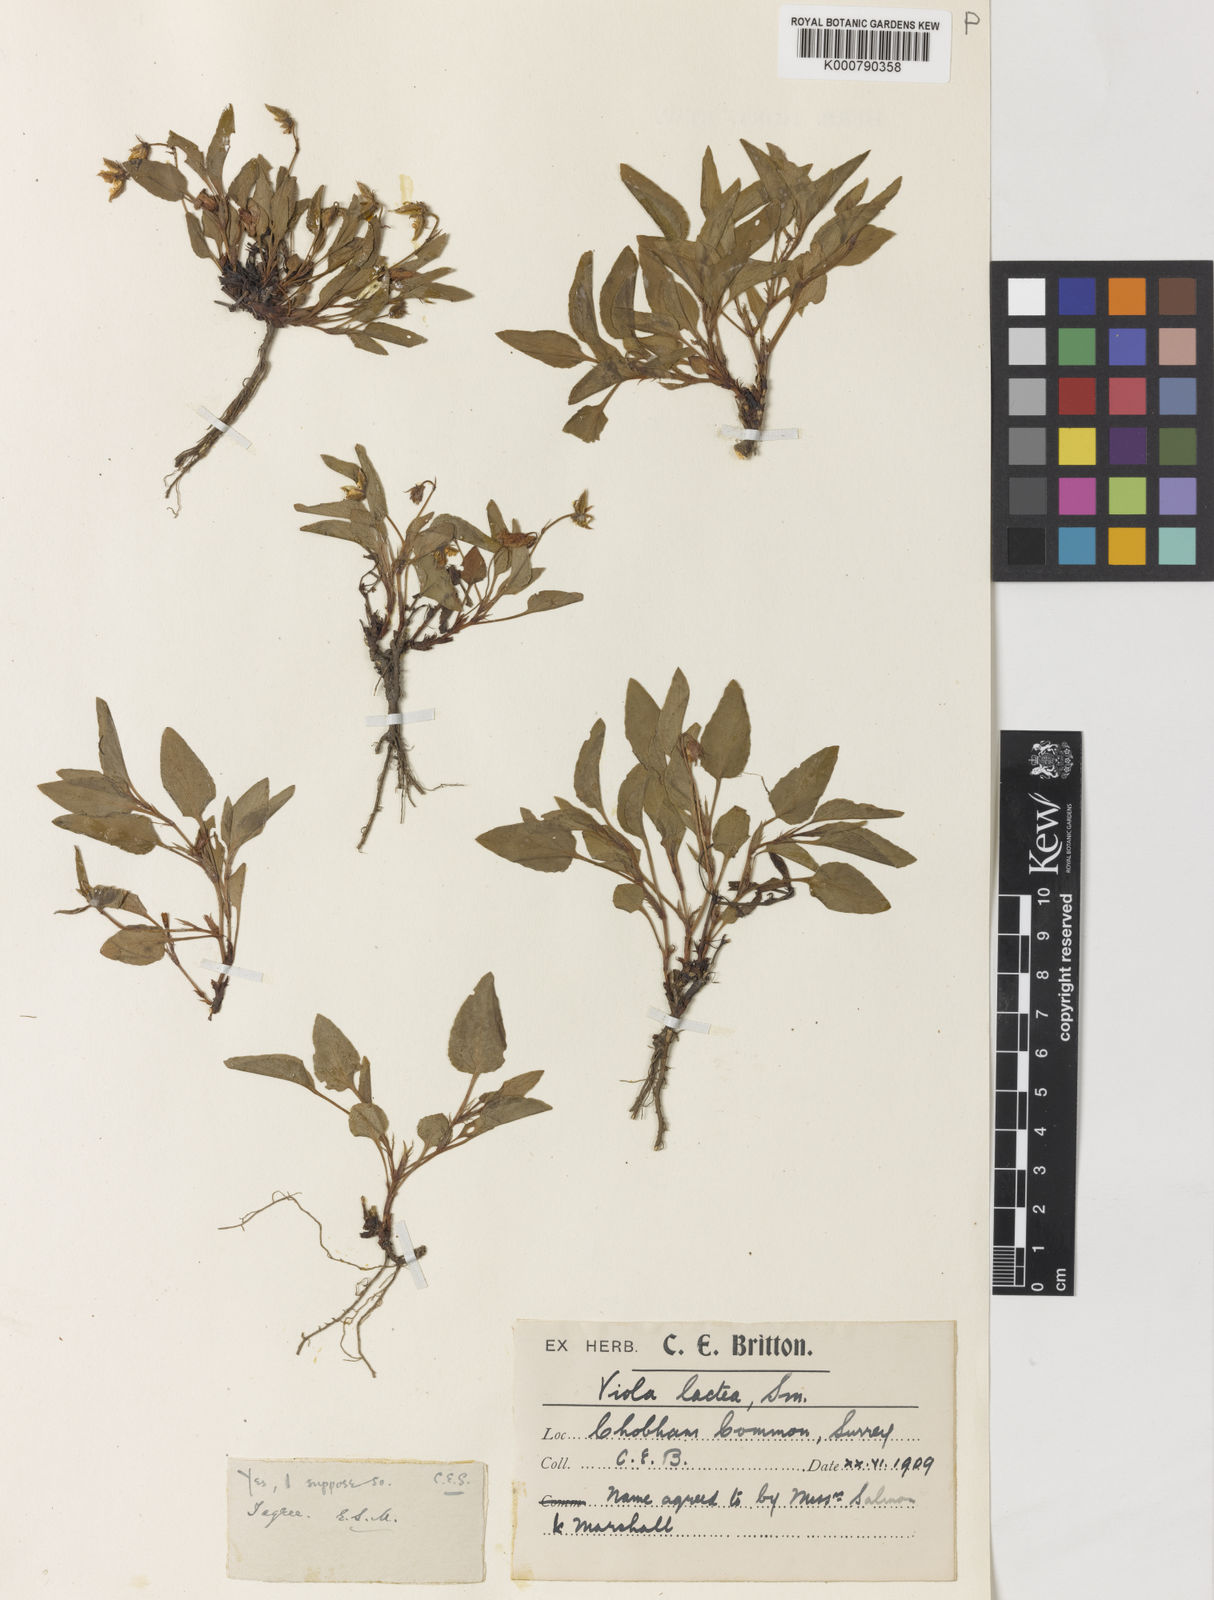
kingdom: Plantae
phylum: Tracheophyta
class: Magnoliopsida
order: Malpighiales
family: Violaceae
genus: Viola
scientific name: Viola lactea
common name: Pale dog-violet
